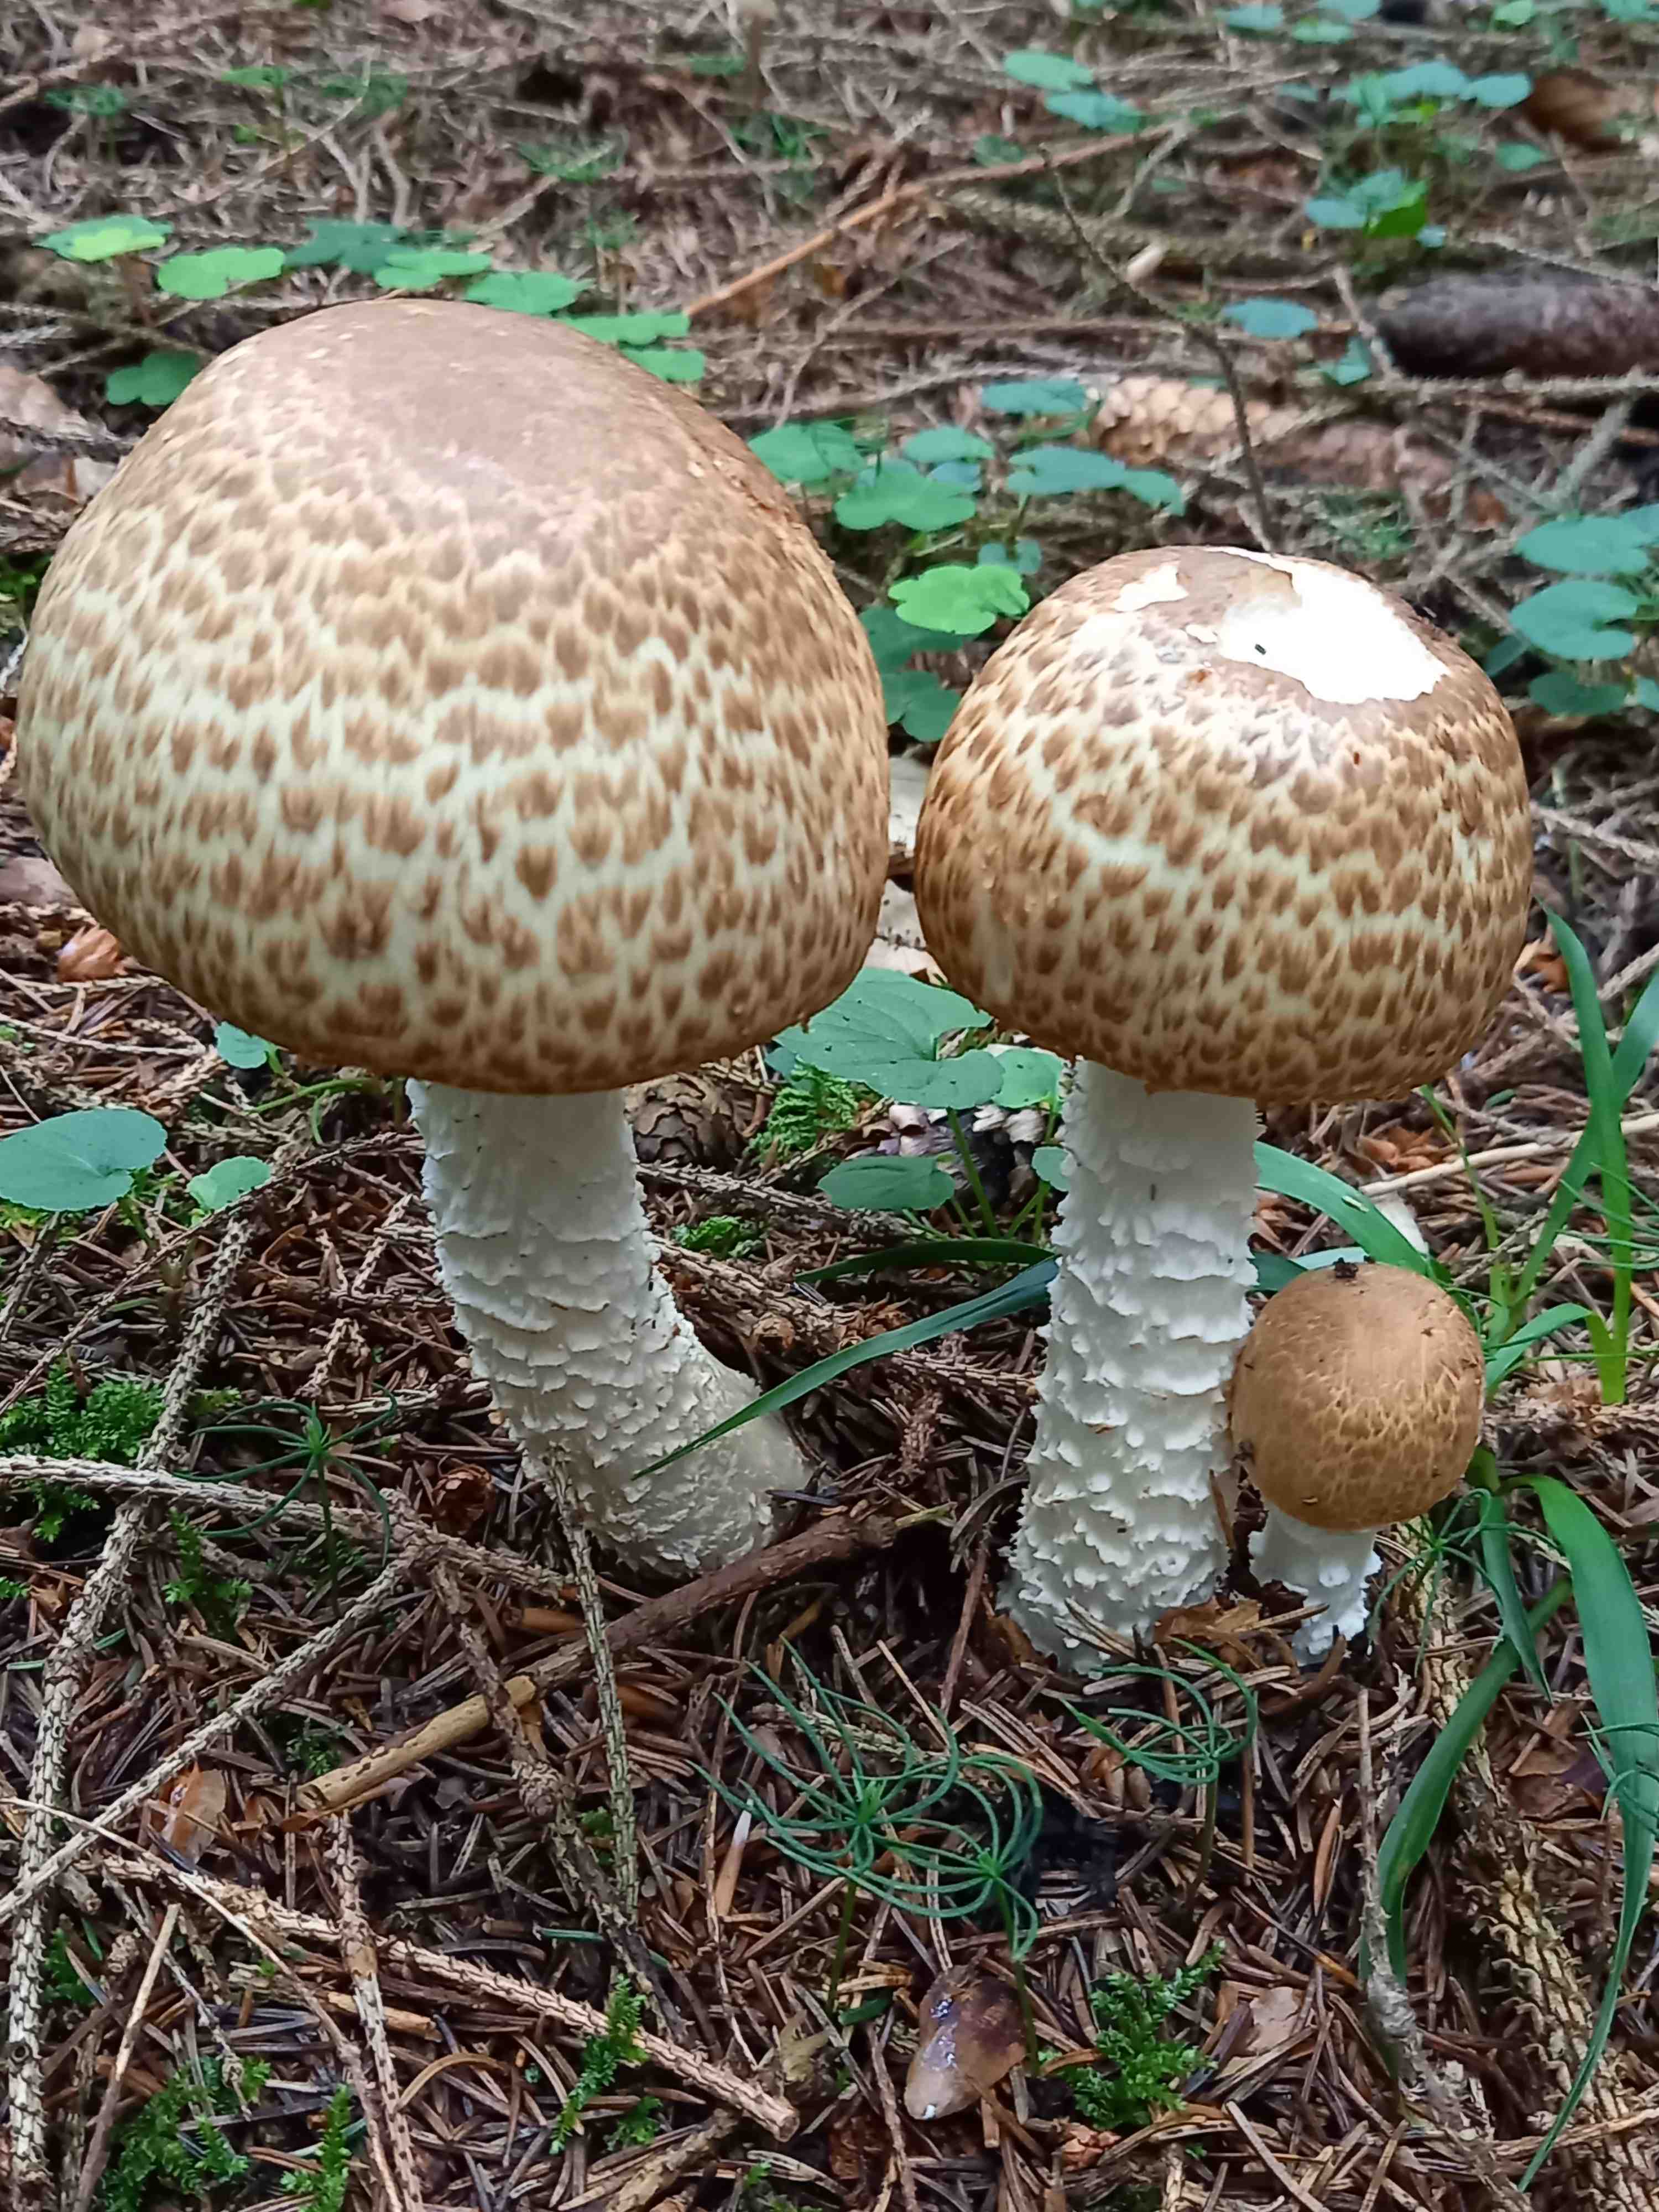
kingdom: Fungi
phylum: Basidiomycota
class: Agaricomycetes
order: Agaricales
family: Agaricaceae
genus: Agaricus
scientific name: Agaricus augustus
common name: prægtig champignon
